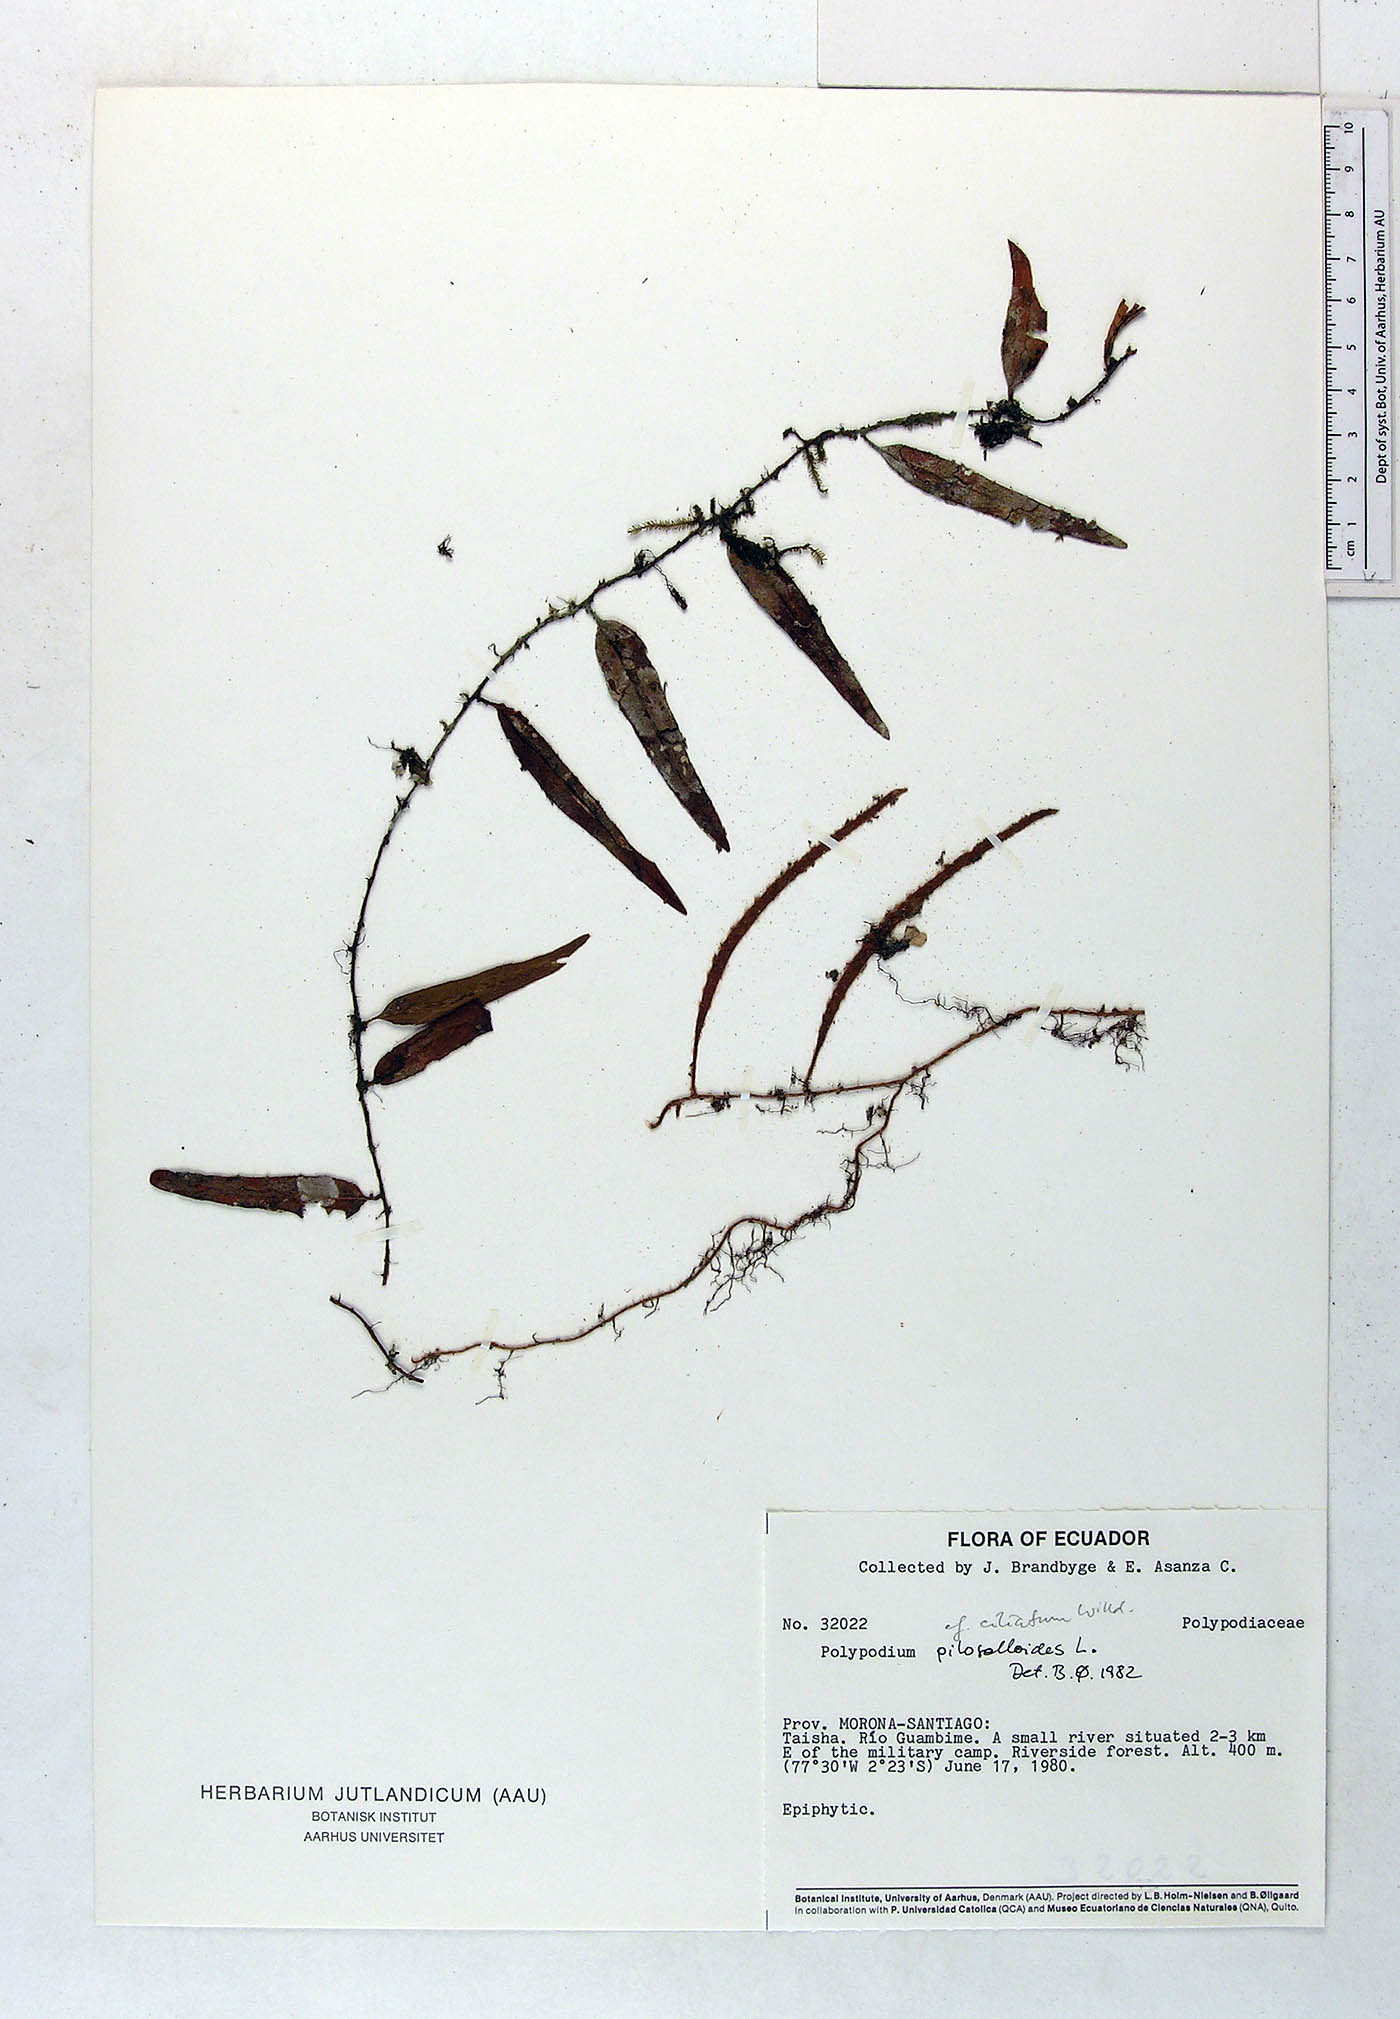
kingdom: Plantae
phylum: Tracheophyta
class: Polypodiopsida
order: Polypodiales
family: Polypodiaceae
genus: Microgramma
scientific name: Microgramma piloselloides
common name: Hairy snakefern
